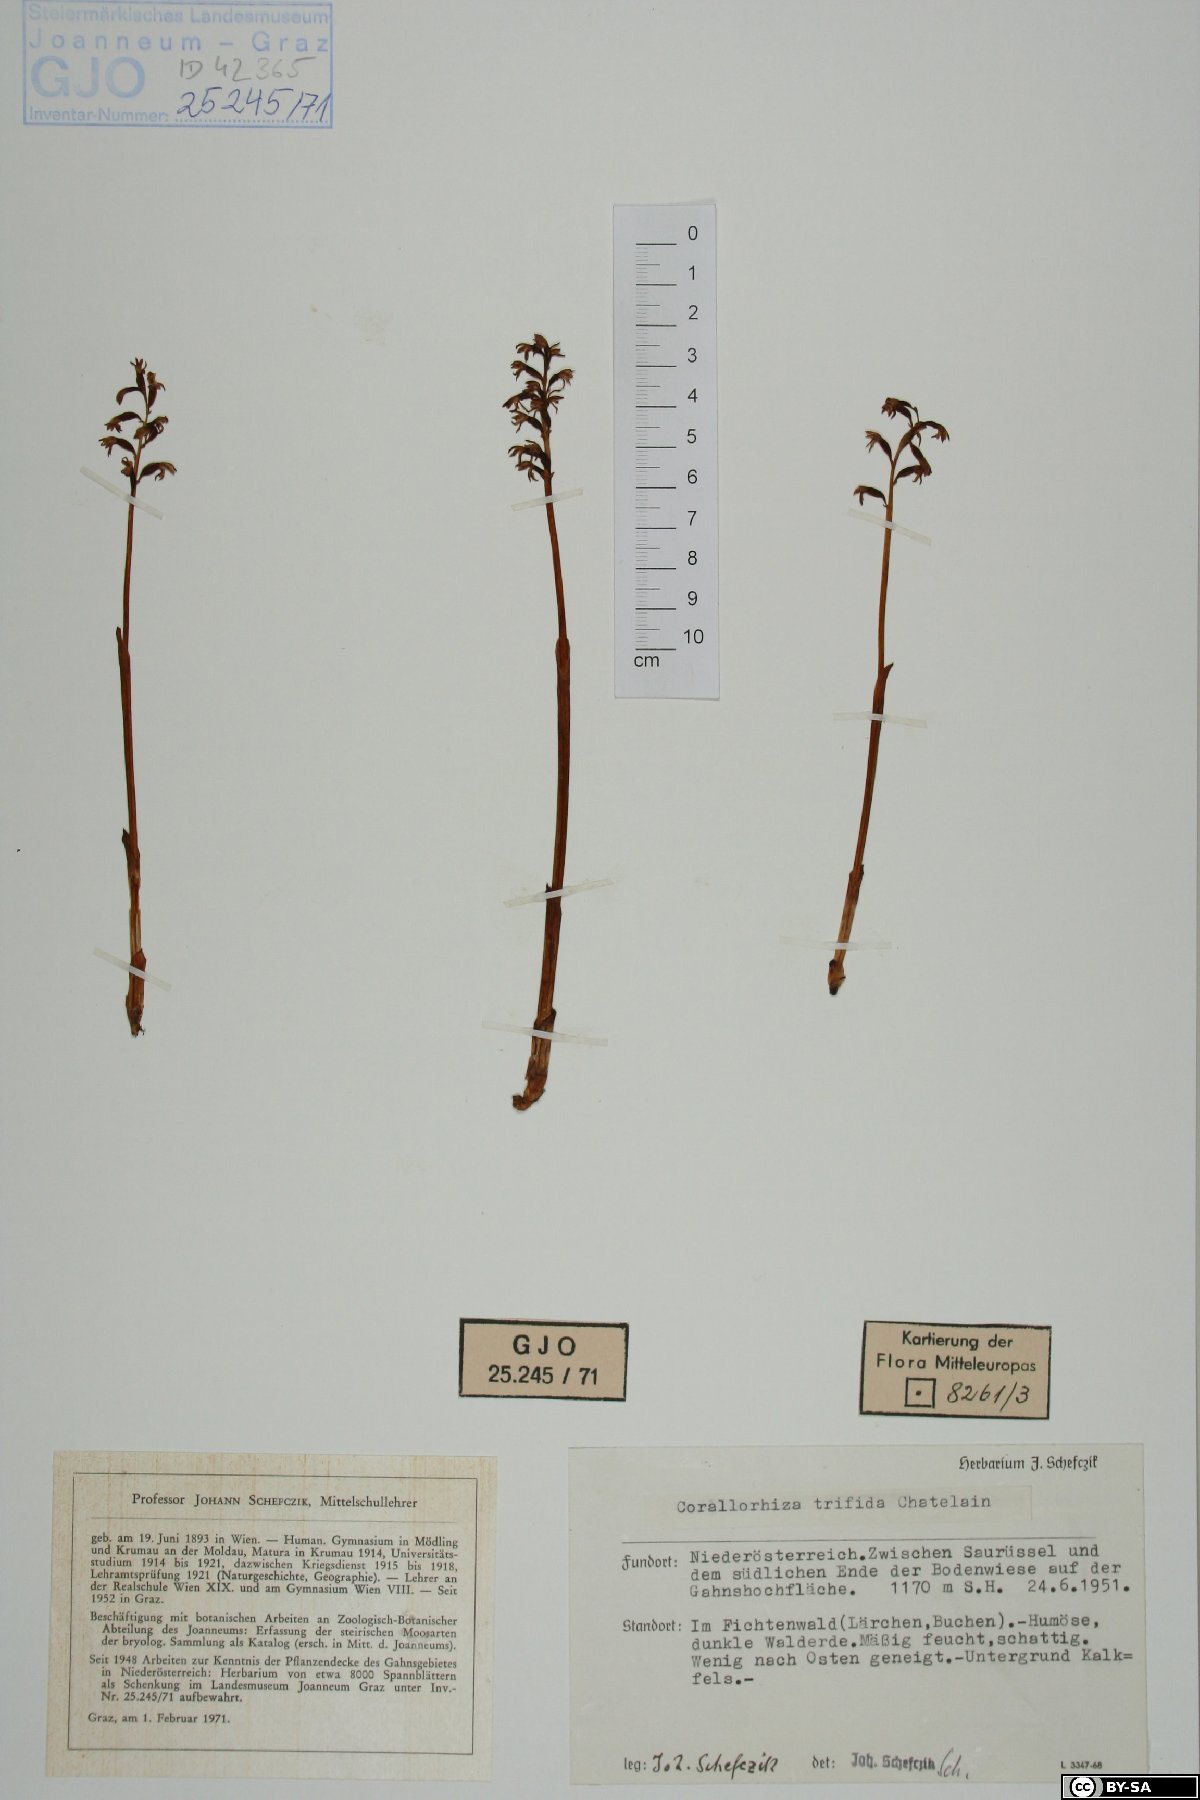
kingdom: Plantae
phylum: Tracheophyta
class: Liliopsida
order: Asparagales
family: Orchidaceae
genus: Corallorhiza
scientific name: Corallorhiza trifida
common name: Yellow coralroot
